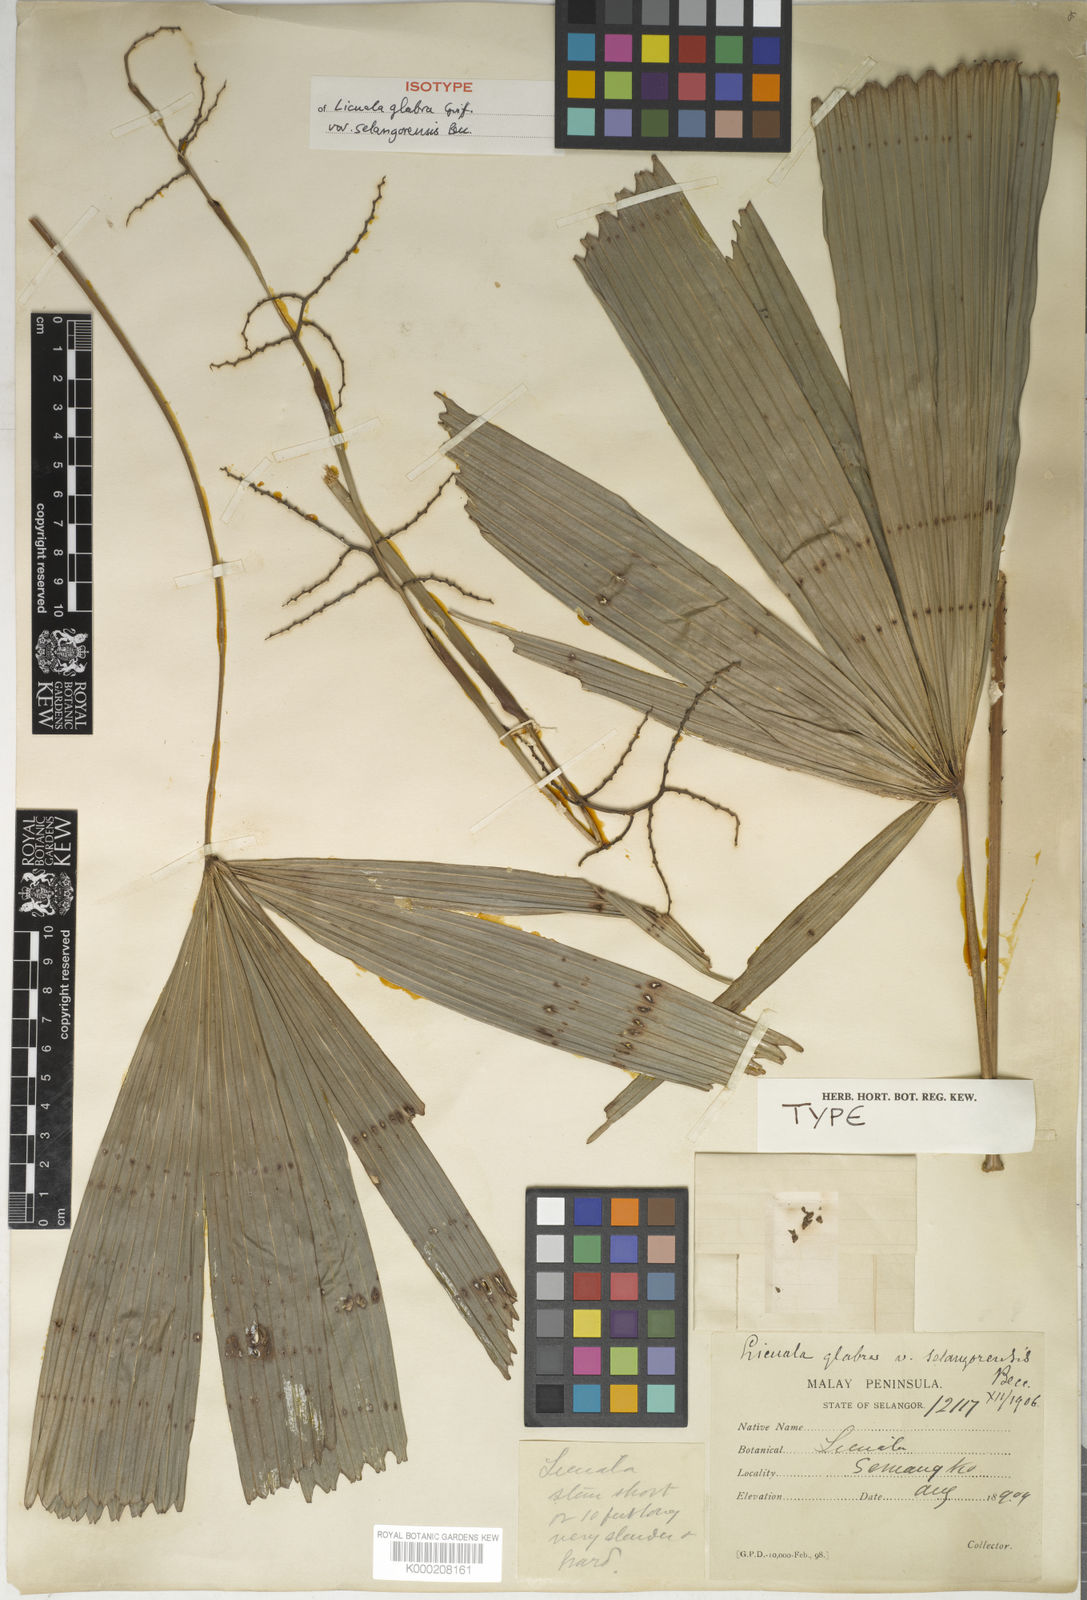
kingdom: Plantae
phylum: Tracheophyta
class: Liliopsida
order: Arecales
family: Arecaceae
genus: Licuala
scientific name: Licuala glabra
